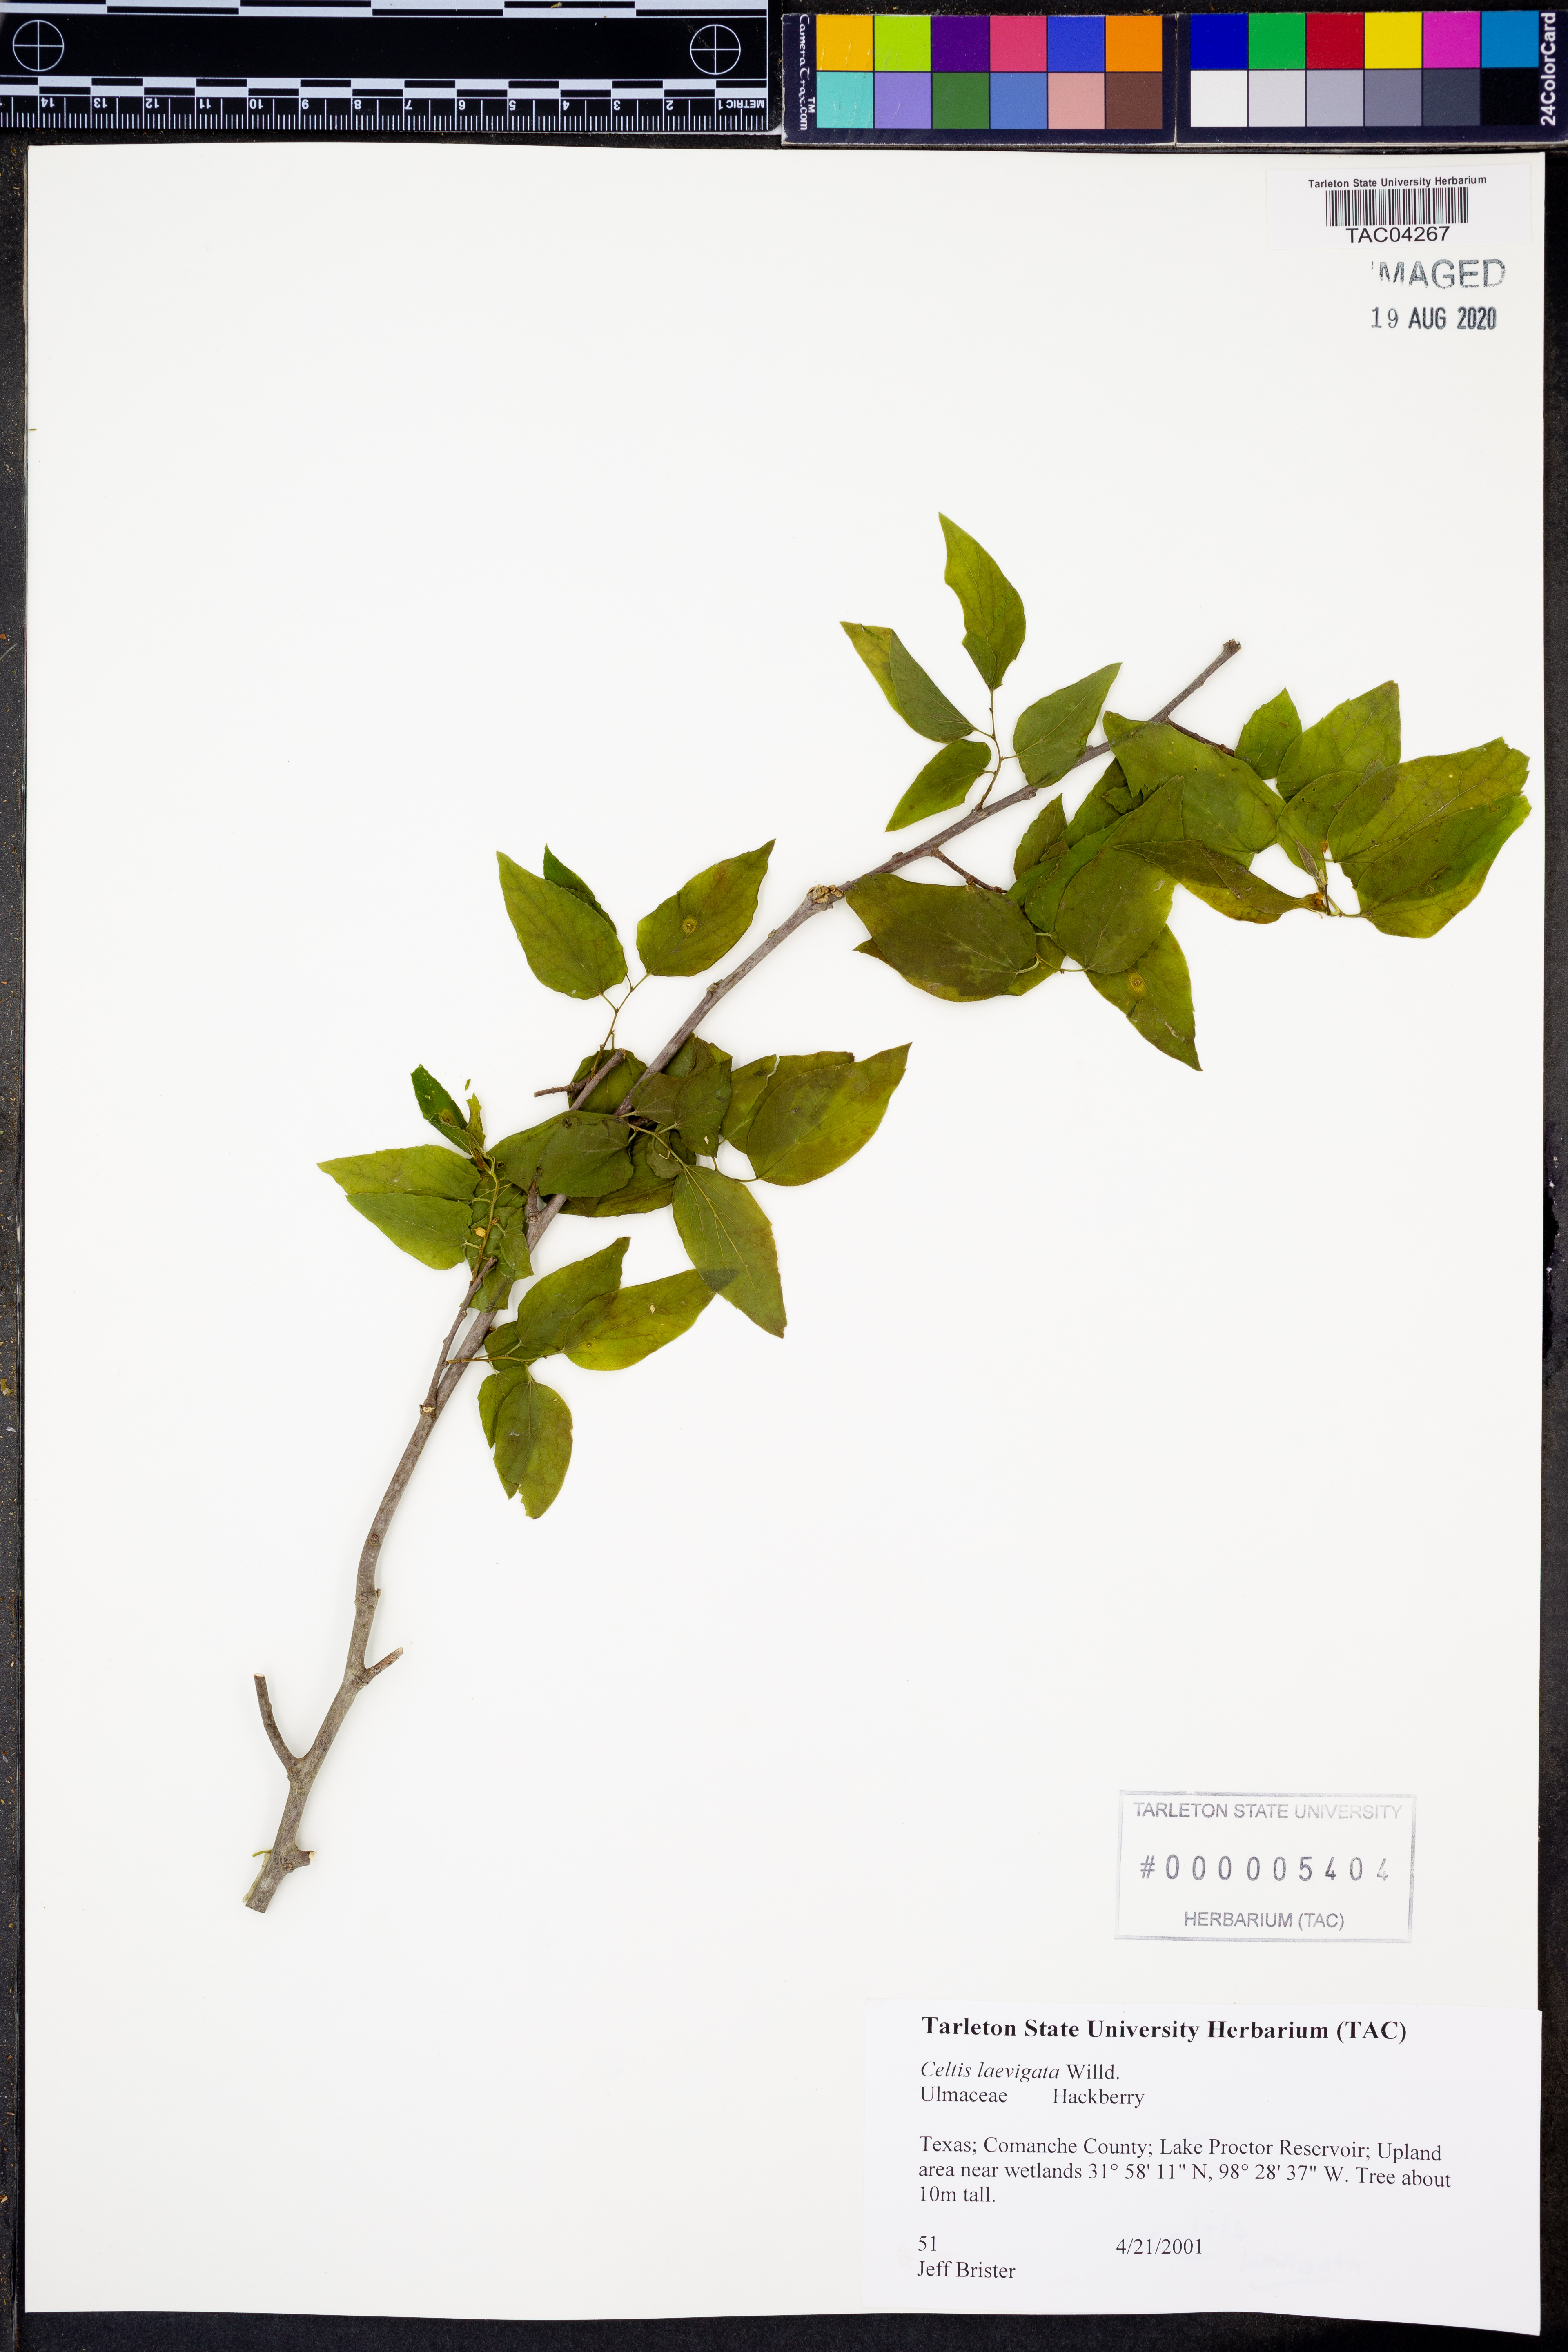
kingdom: Plantae
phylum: Tracheophyta
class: Magnoliopsida
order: Rosales
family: Cannabaceae
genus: Celtis
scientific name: Celtis laevigata
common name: Sugarberry
